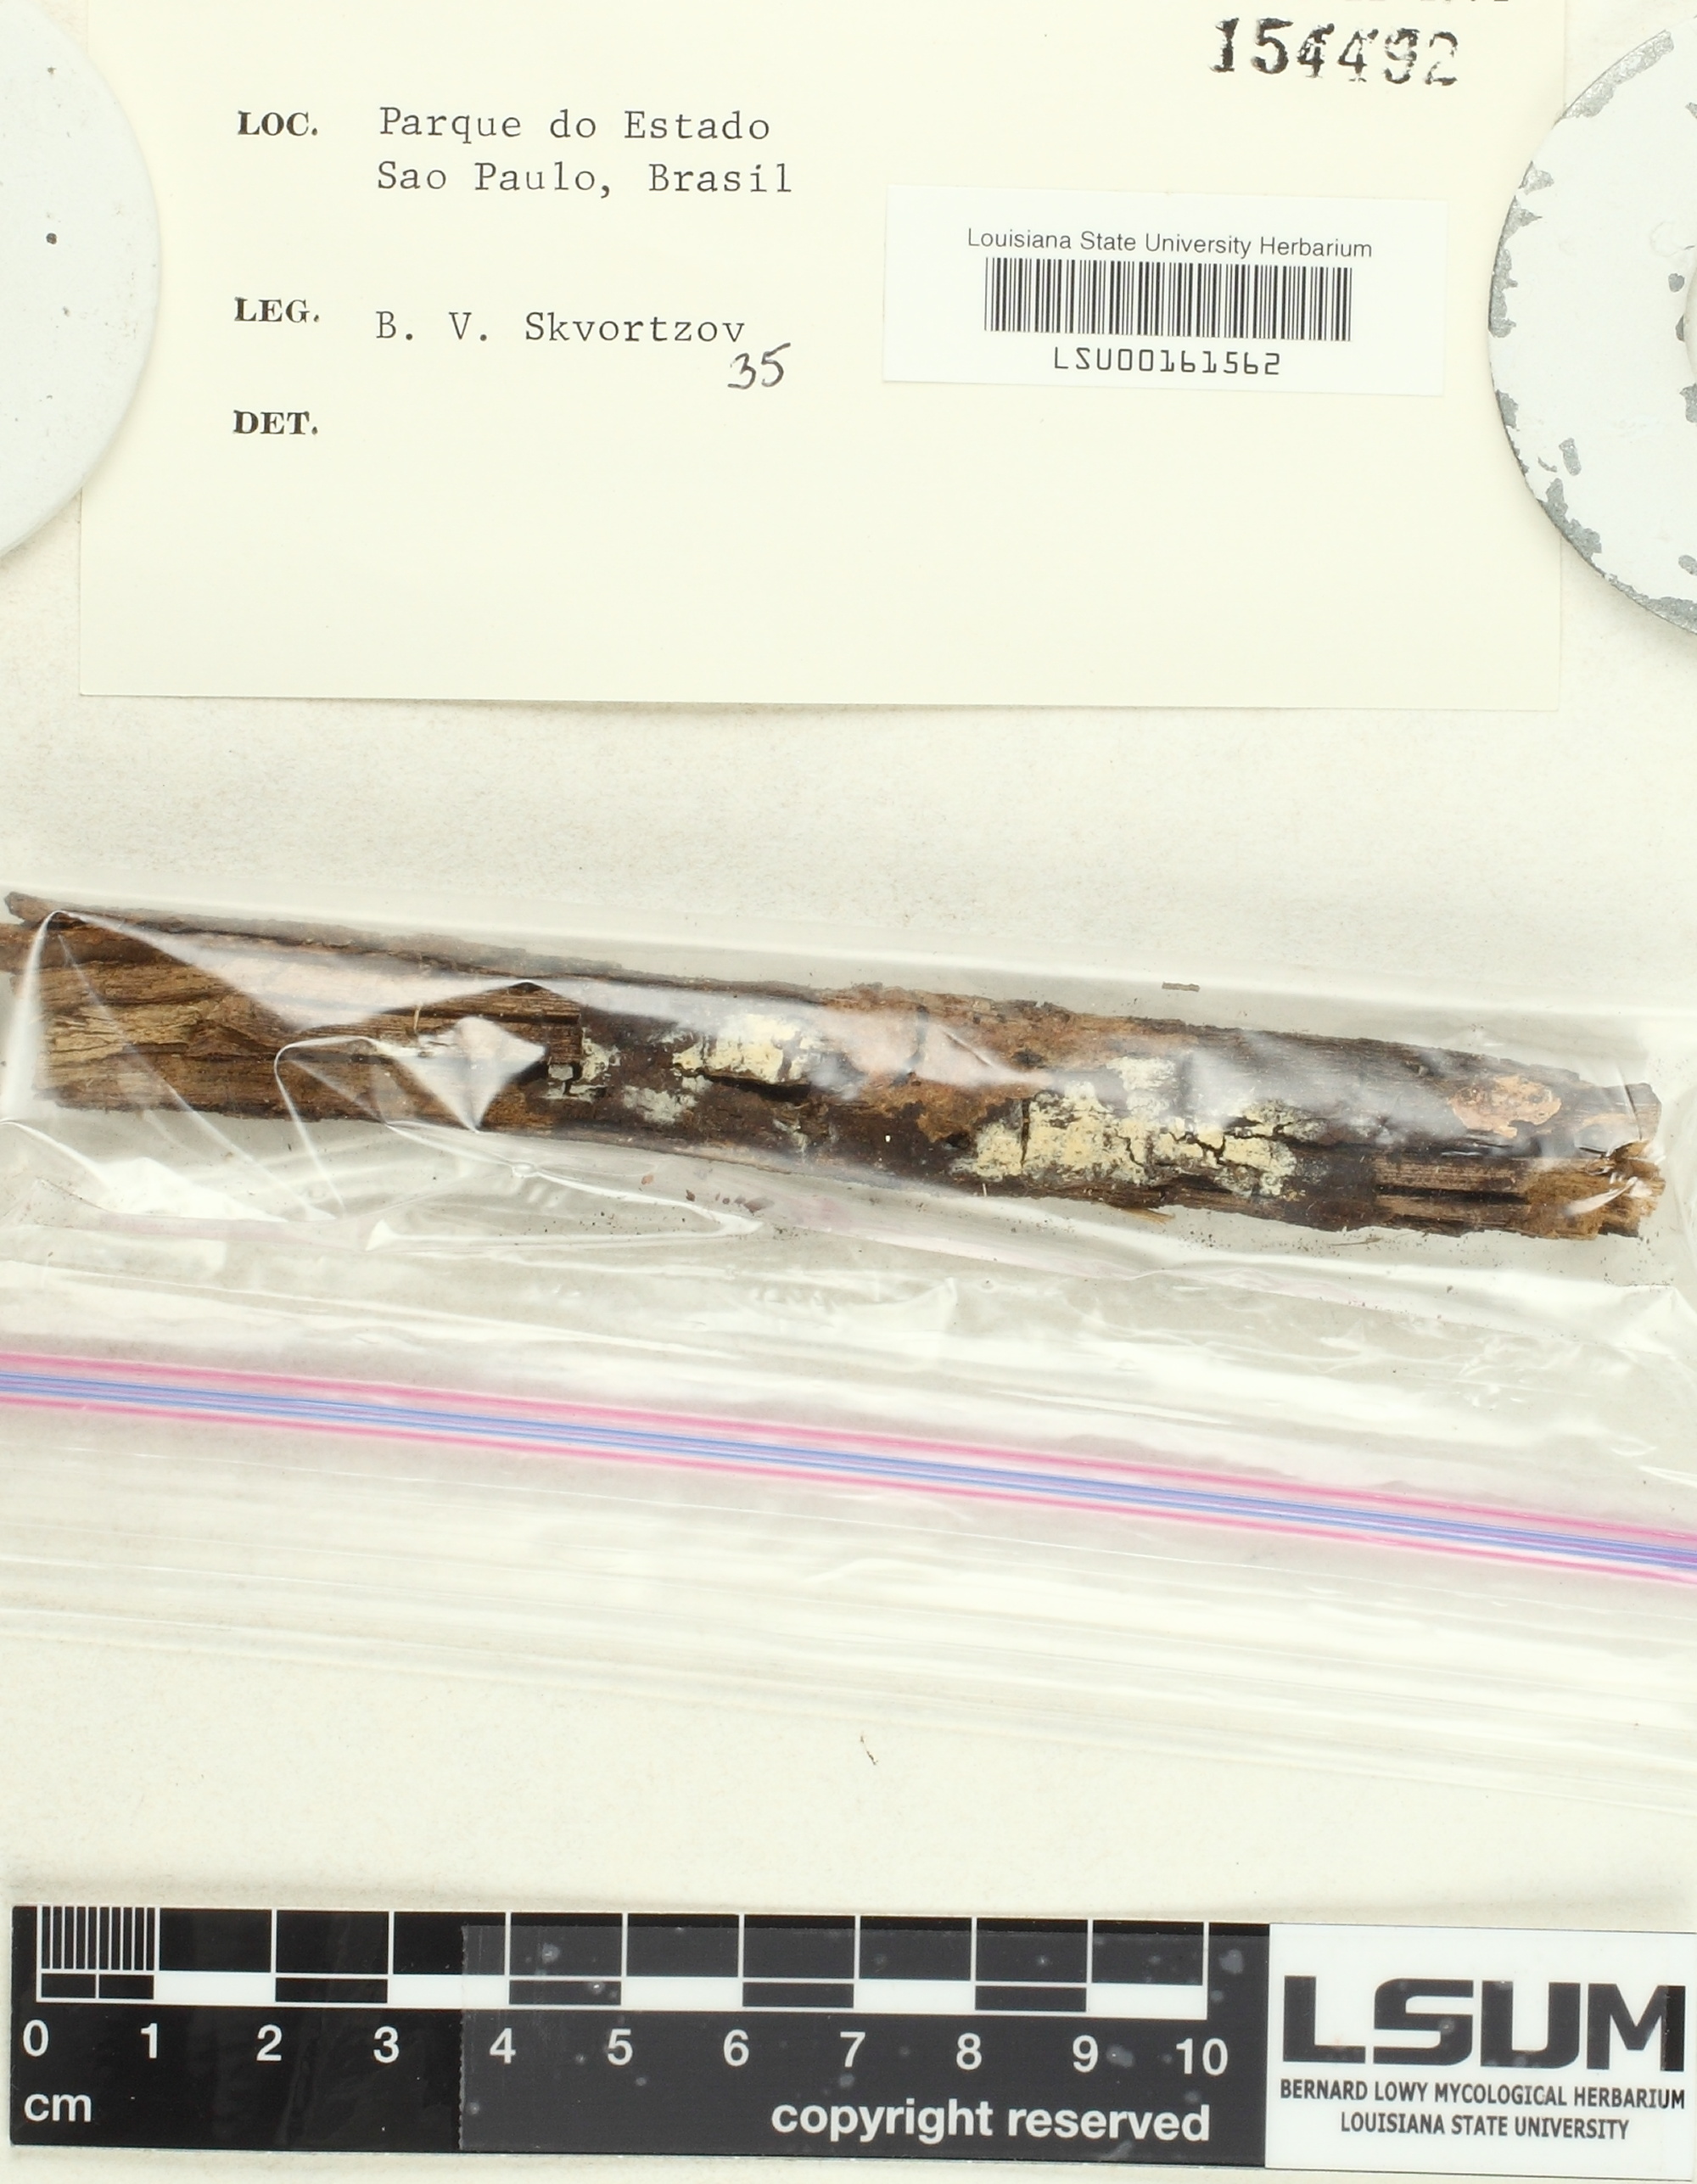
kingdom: Fungi
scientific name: Fungi
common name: Fungi
